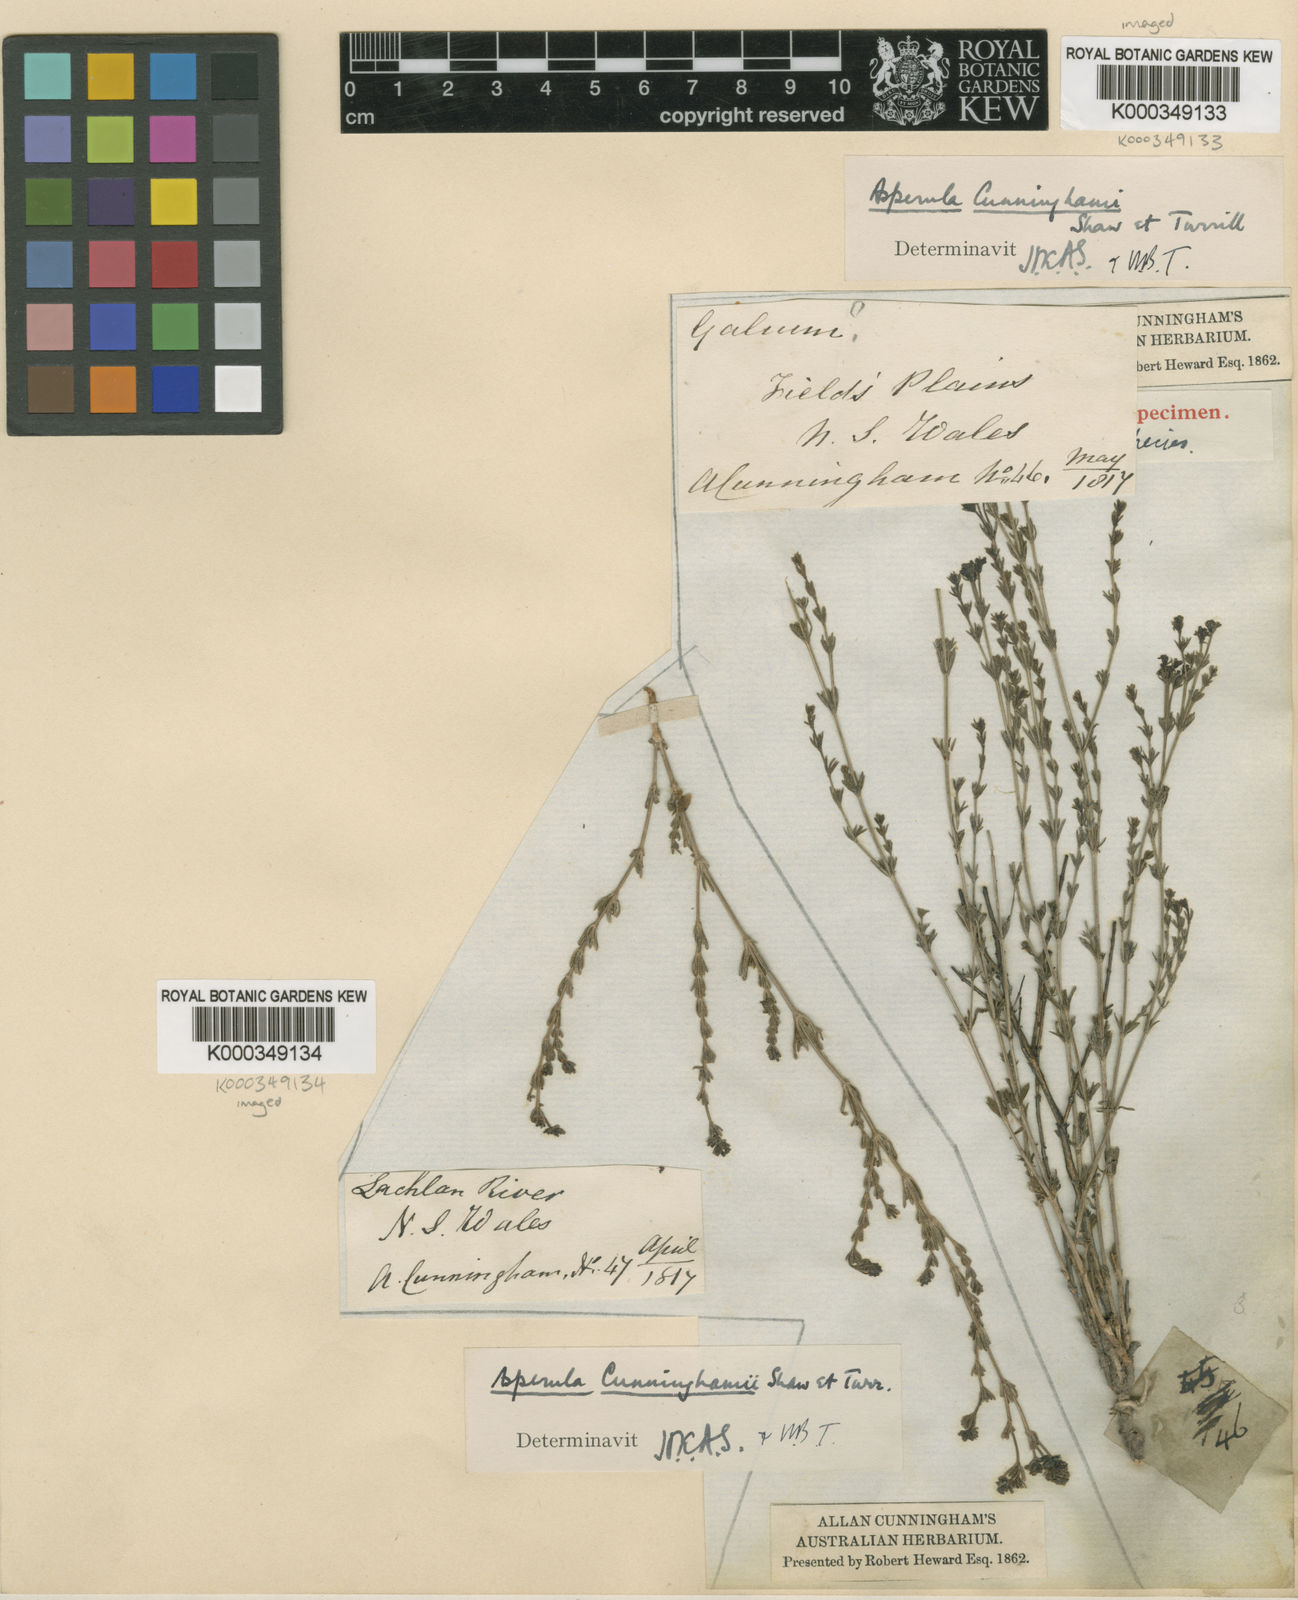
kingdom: Plantae
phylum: Tracheophyta
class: Magnoliopsida
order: Gentianales
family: Rubiaceae
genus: Asperula
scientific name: Asperula cunninghamii
